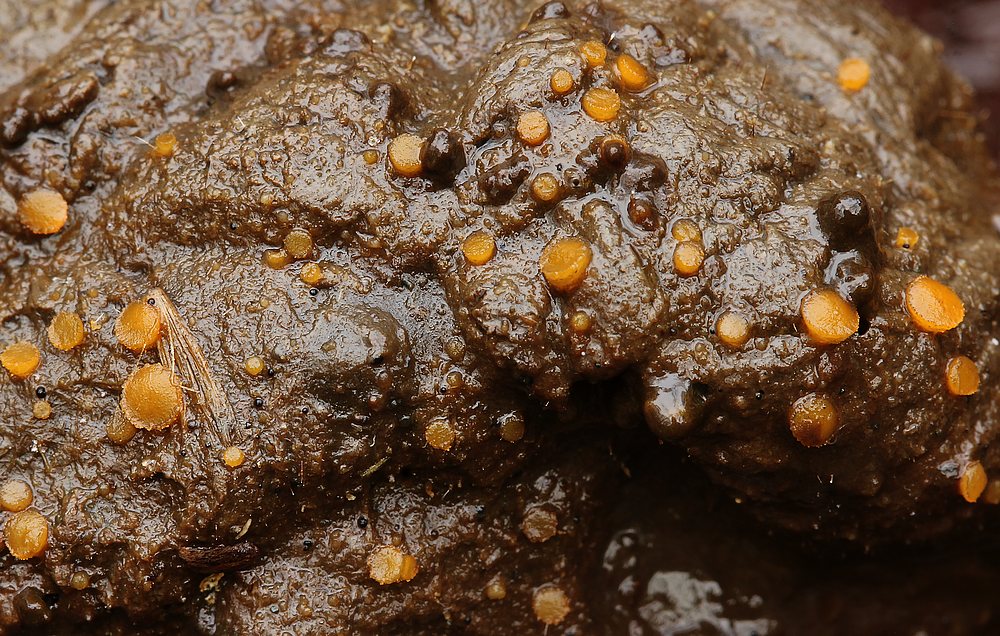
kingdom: Fungi
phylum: Ascomycota
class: Pezizomycetes
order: Pezizales
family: Pyronemataceae
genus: Cheilymenia
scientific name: Cheilymenia
